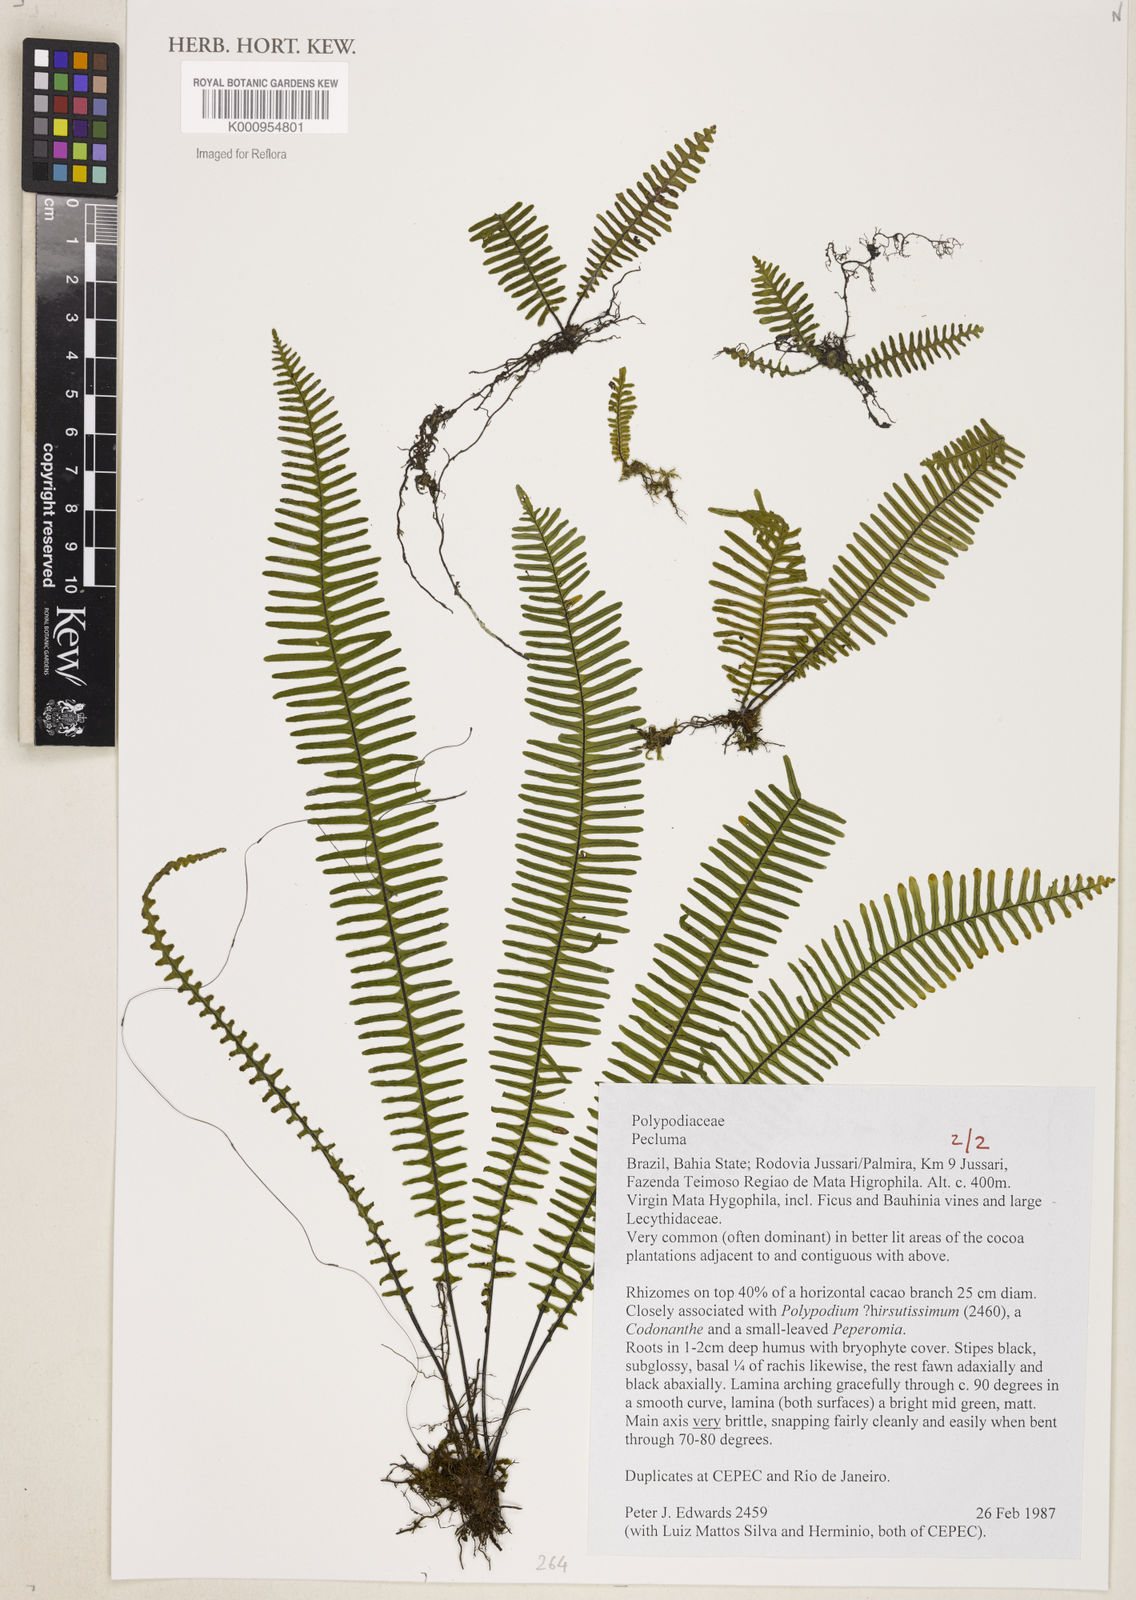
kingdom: Plantae
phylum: Tracheophyta
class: Polypodiopsida
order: Polypodiales
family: Polypodiaceae
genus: Pecluma
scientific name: Pecluma
